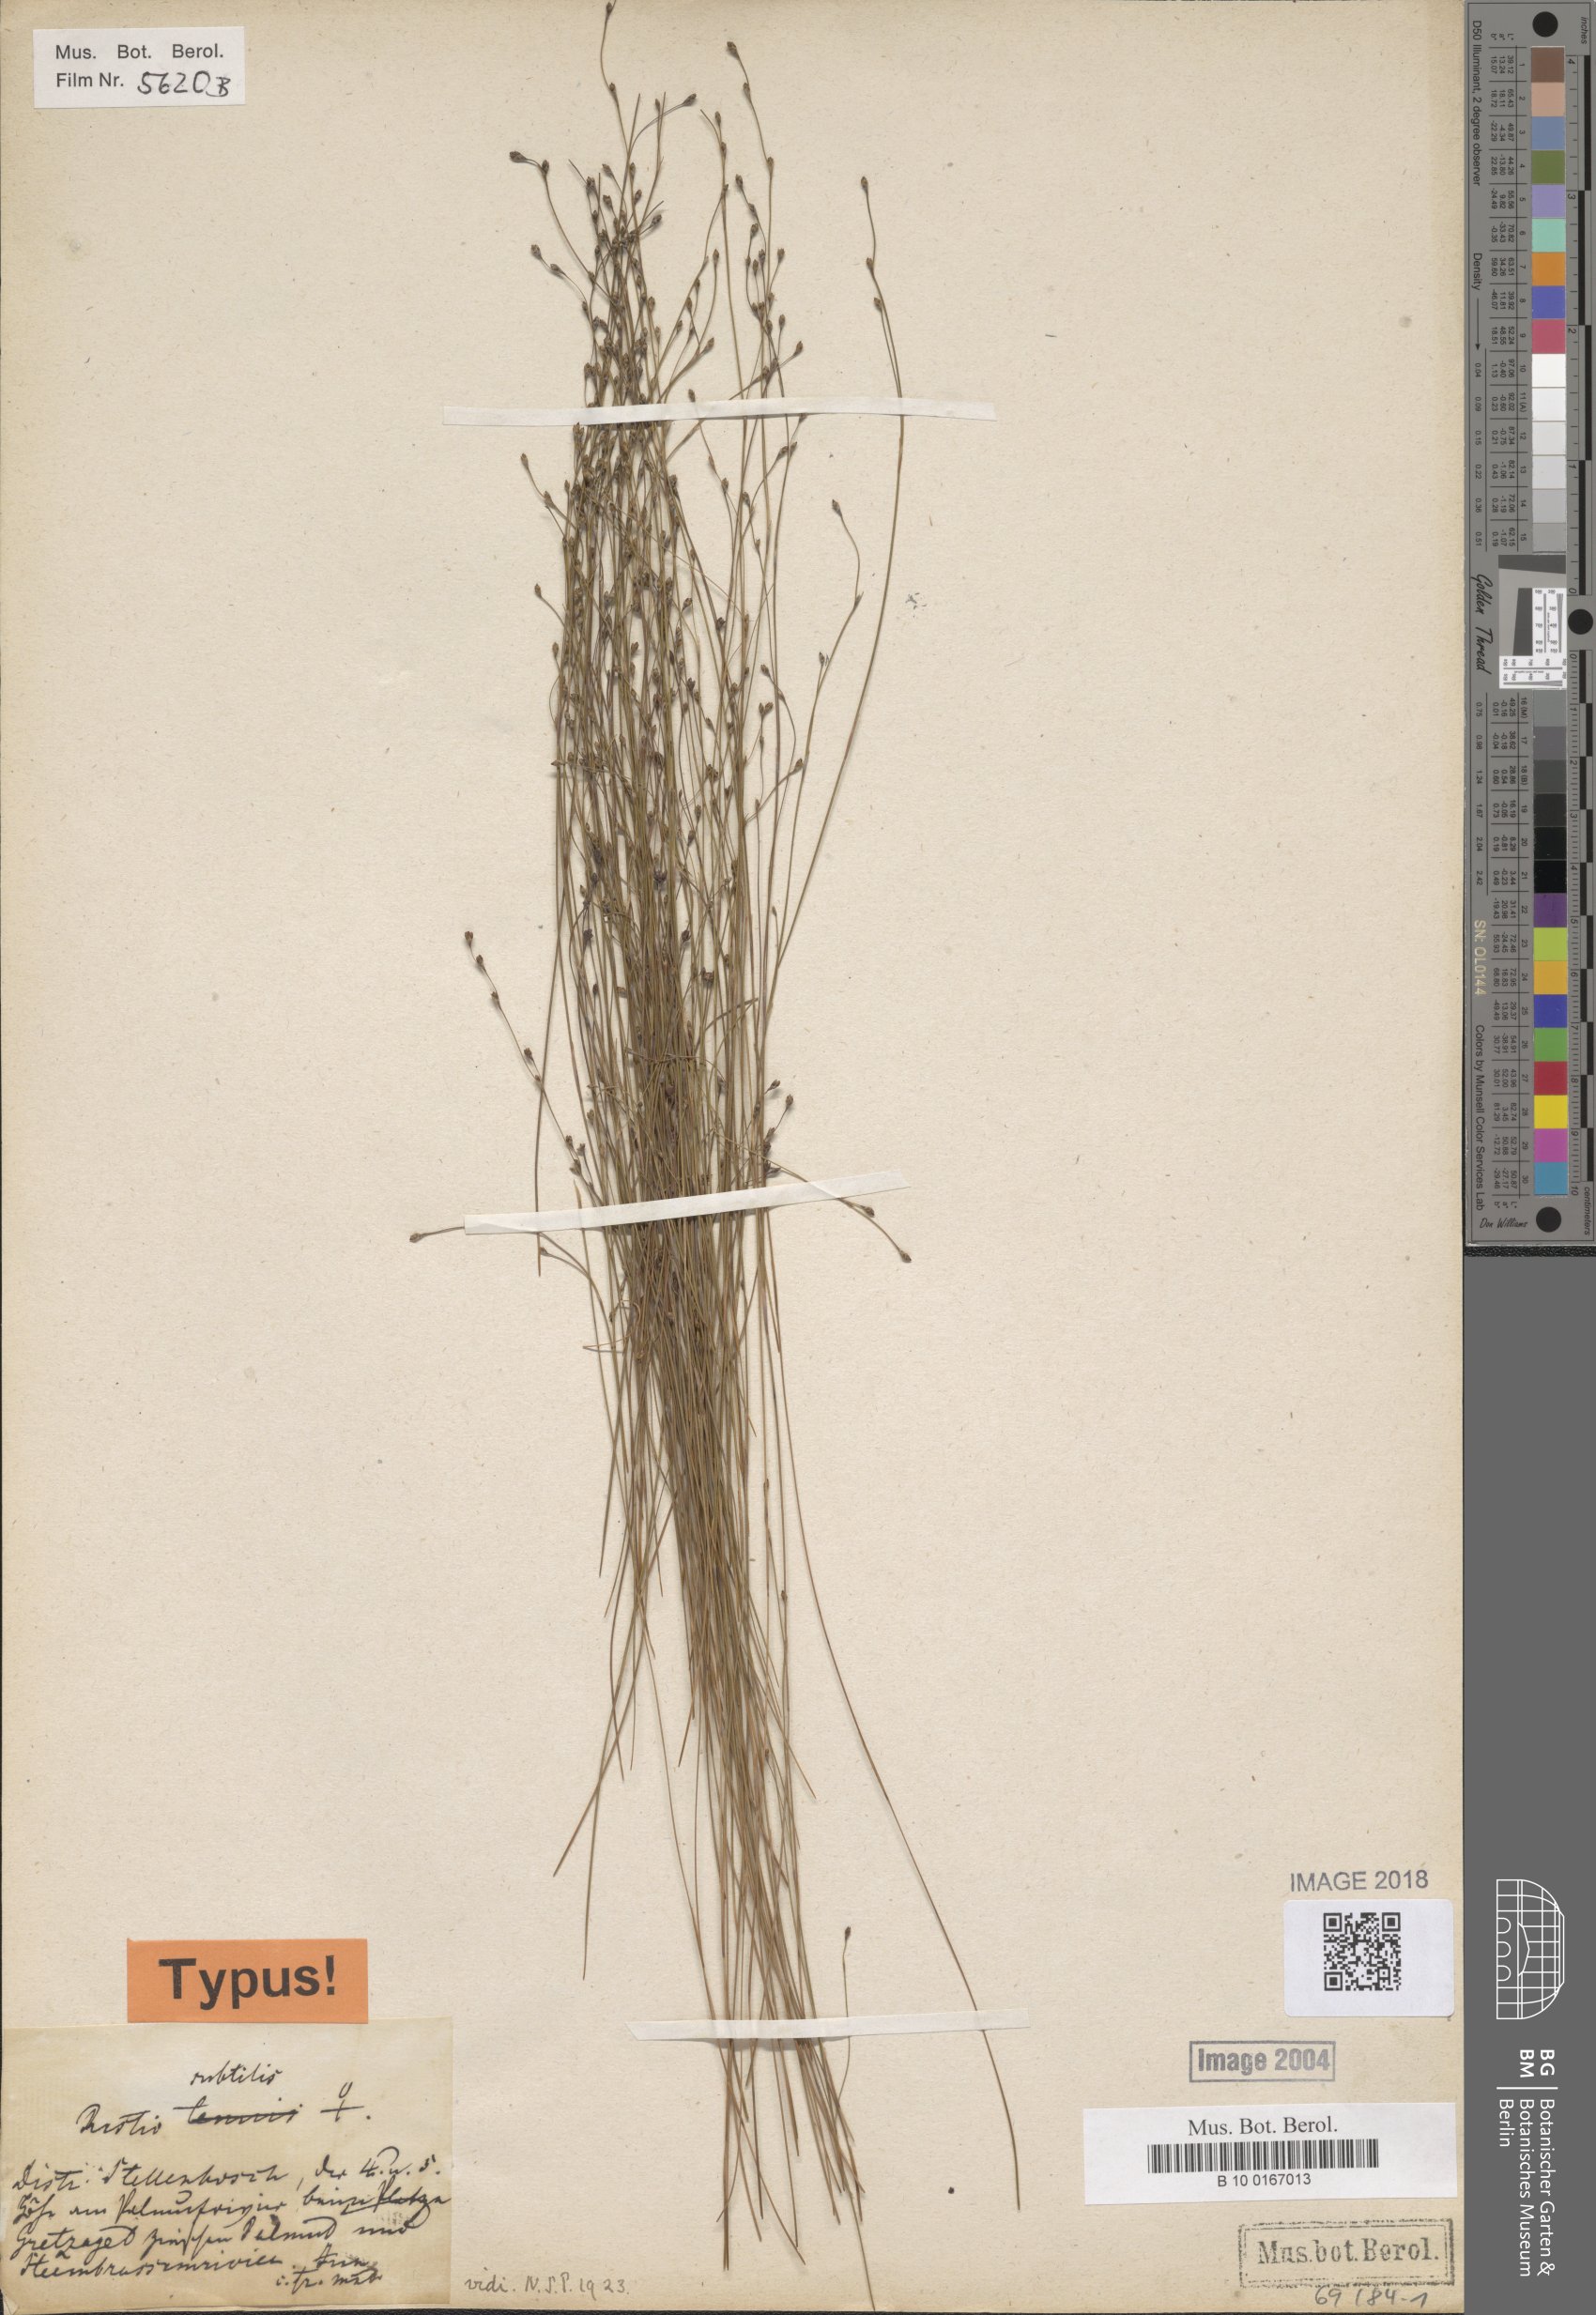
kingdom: Plantae
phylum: Tracheophyta
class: Liliopsida
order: Poales
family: Restionaceae
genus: Restio
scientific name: Restio subtilis
